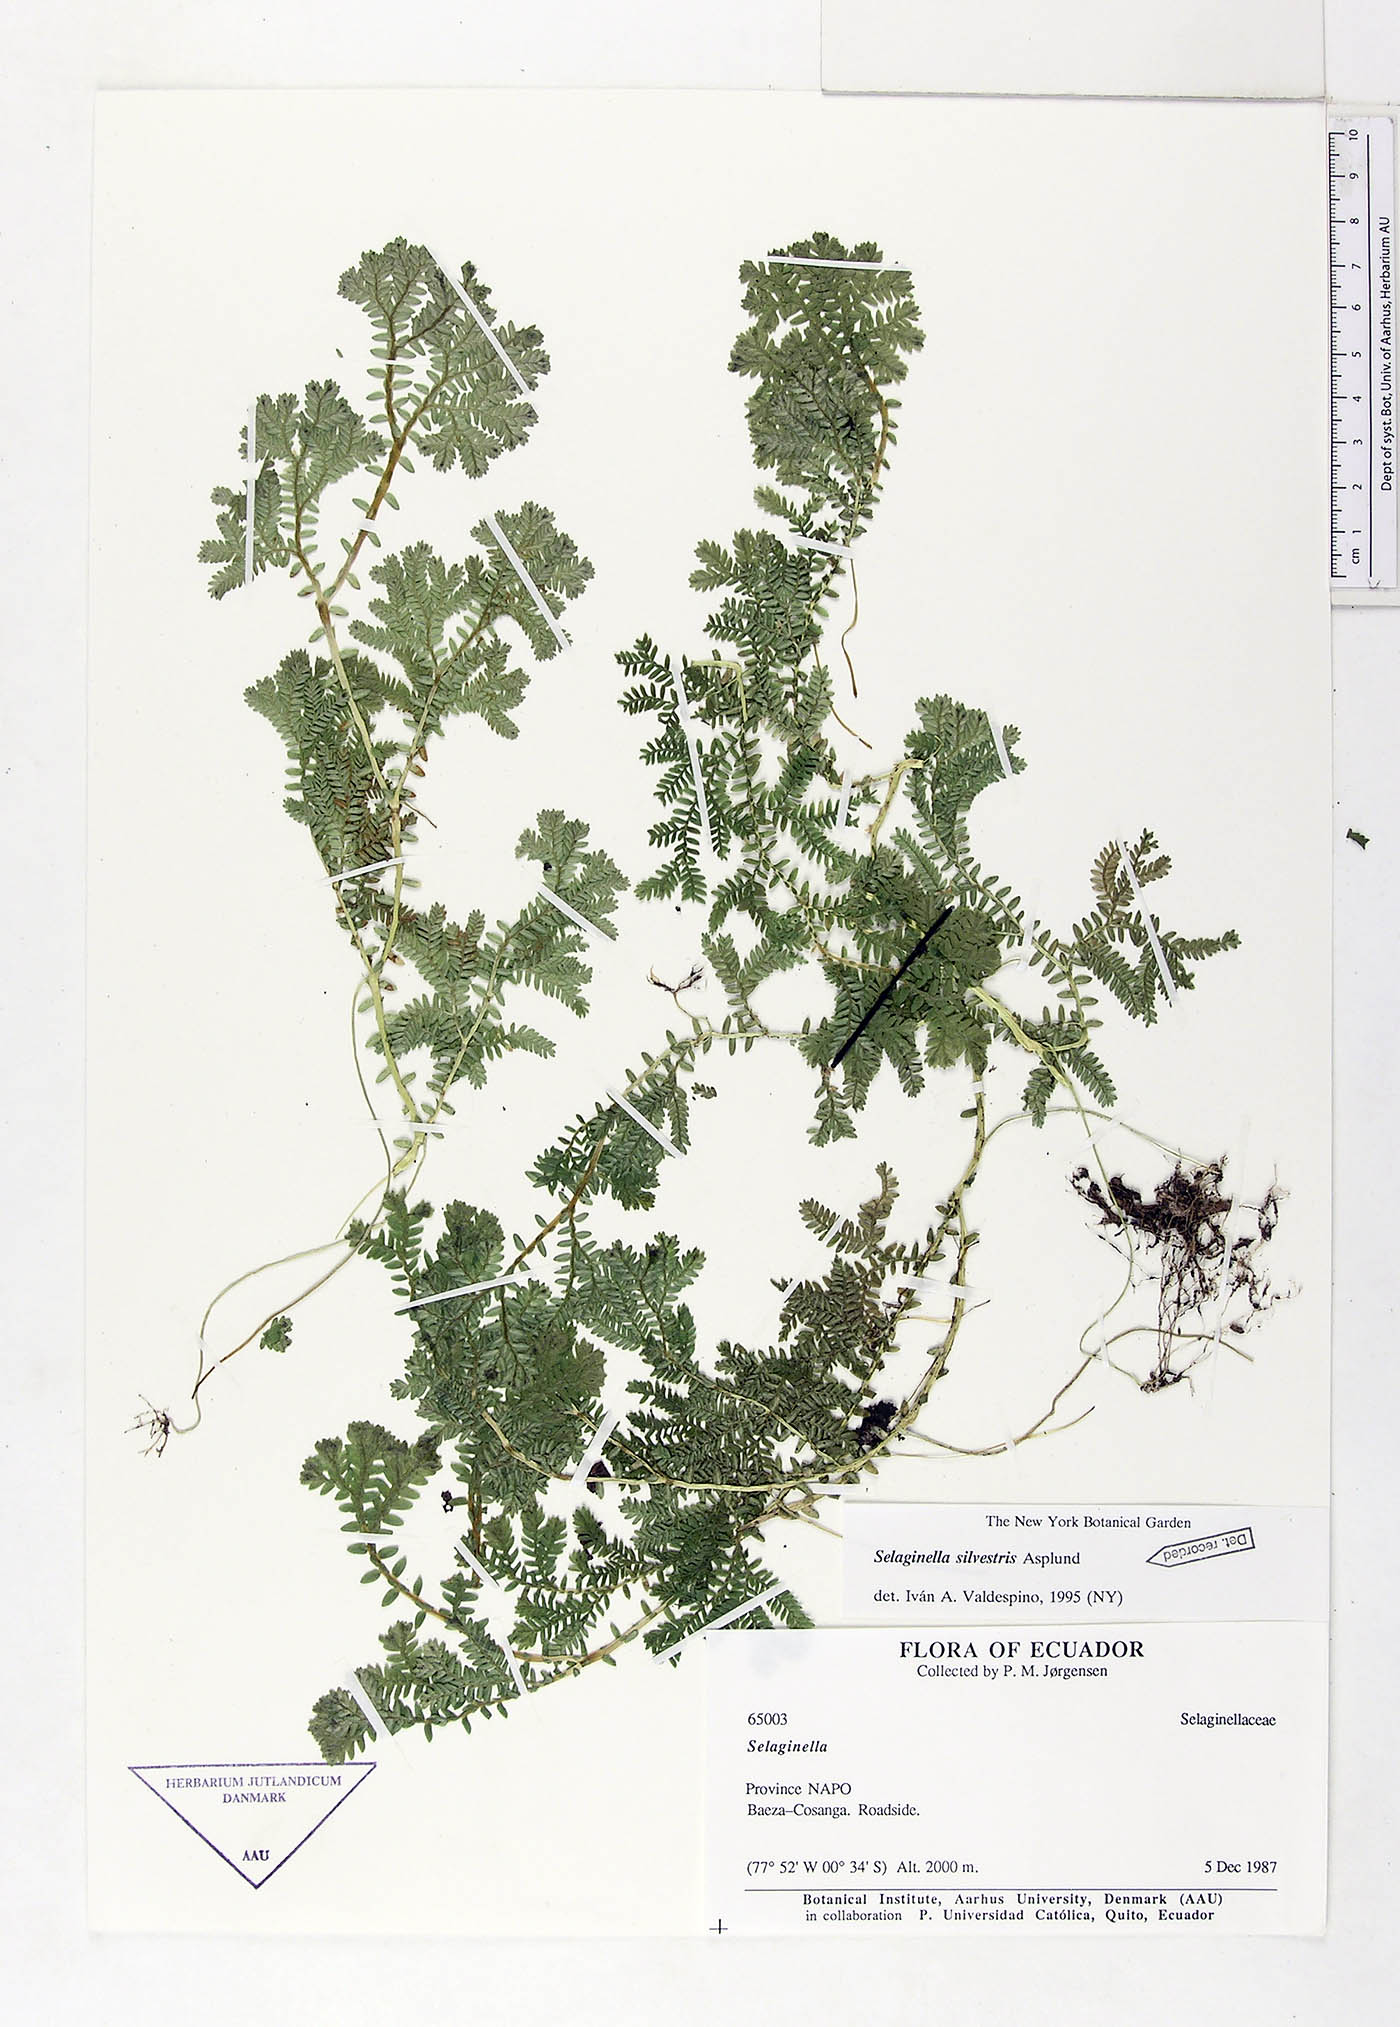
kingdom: Plantae
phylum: Tracheophyta
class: Lycopodiopsida
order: Selaginellales
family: Selaginellaceae
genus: Selaginella
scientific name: Selaginella silvestris
